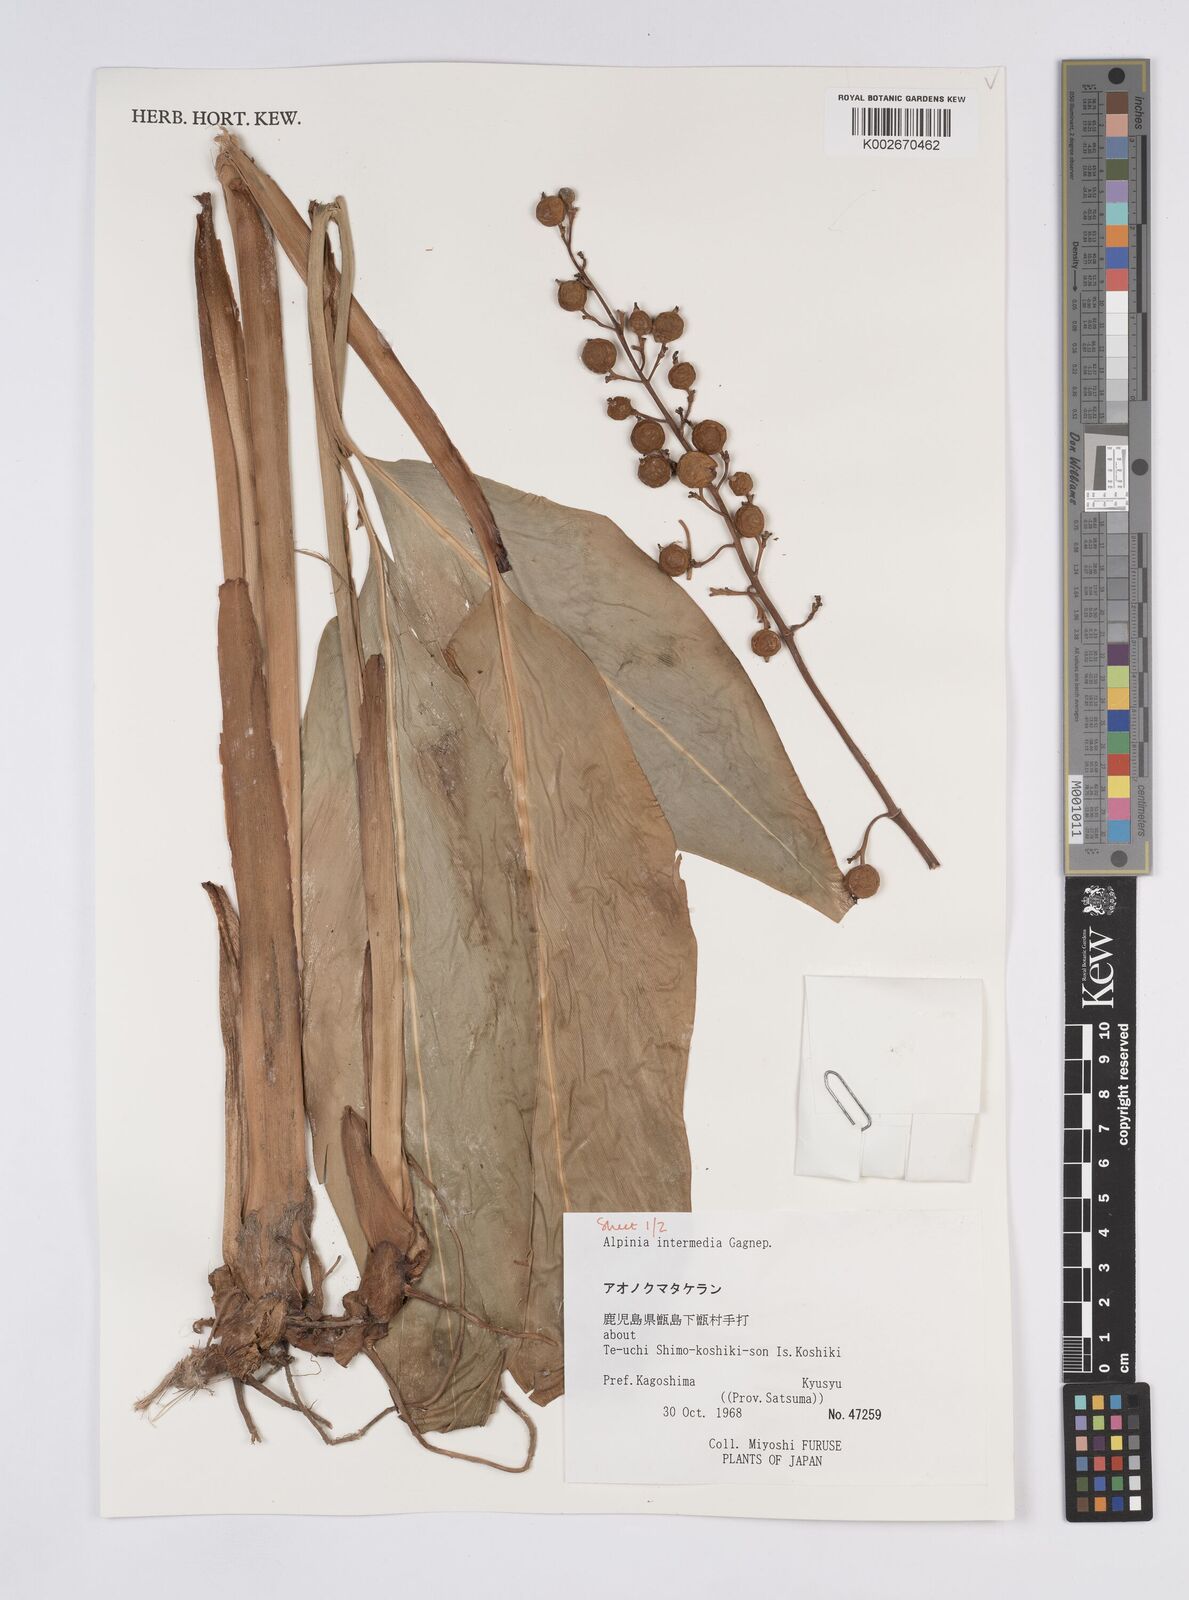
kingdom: Plantae
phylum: Tracheophyta
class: Liliopsida
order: Zingiberales
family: Zingiberaceae
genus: Alpinia
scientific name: Alpinia intermedia
